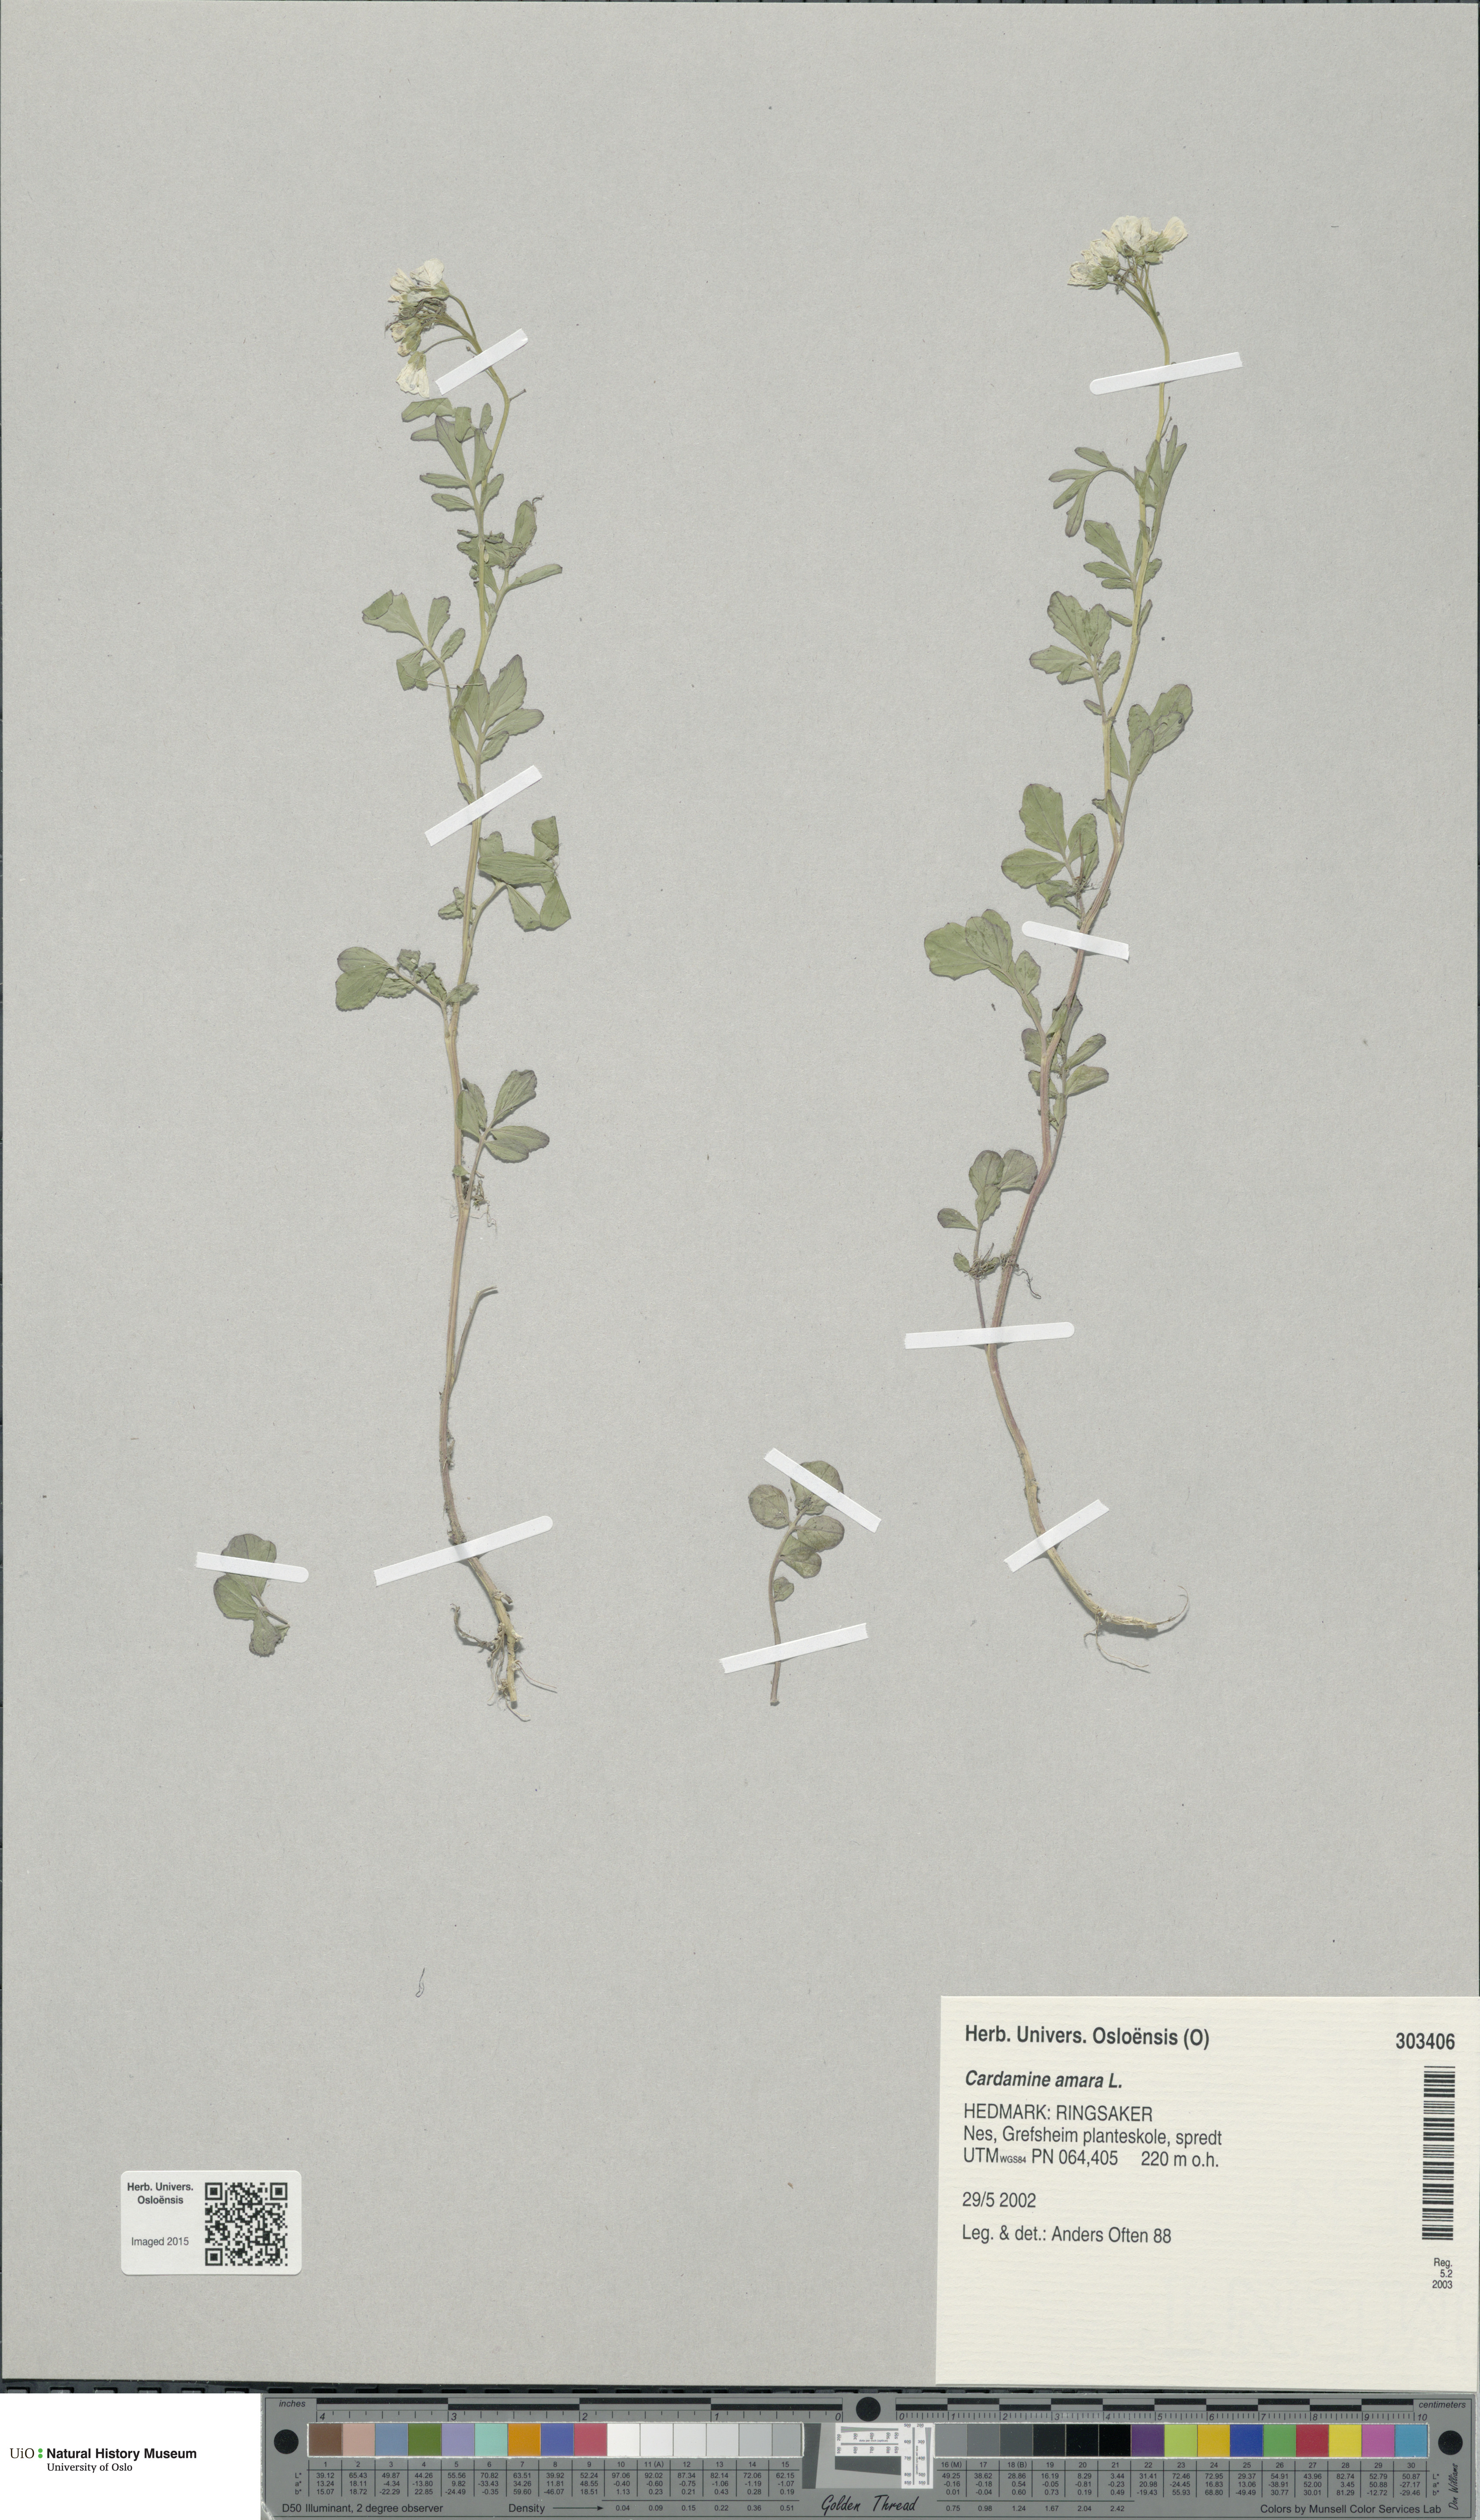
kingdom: Plantae
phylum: Tracheophyta
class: Magnoliopsida
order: Brassicales
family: Brassicaceae
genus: Cardamine
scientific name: Cardamine amara
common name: Large bitter-cress
